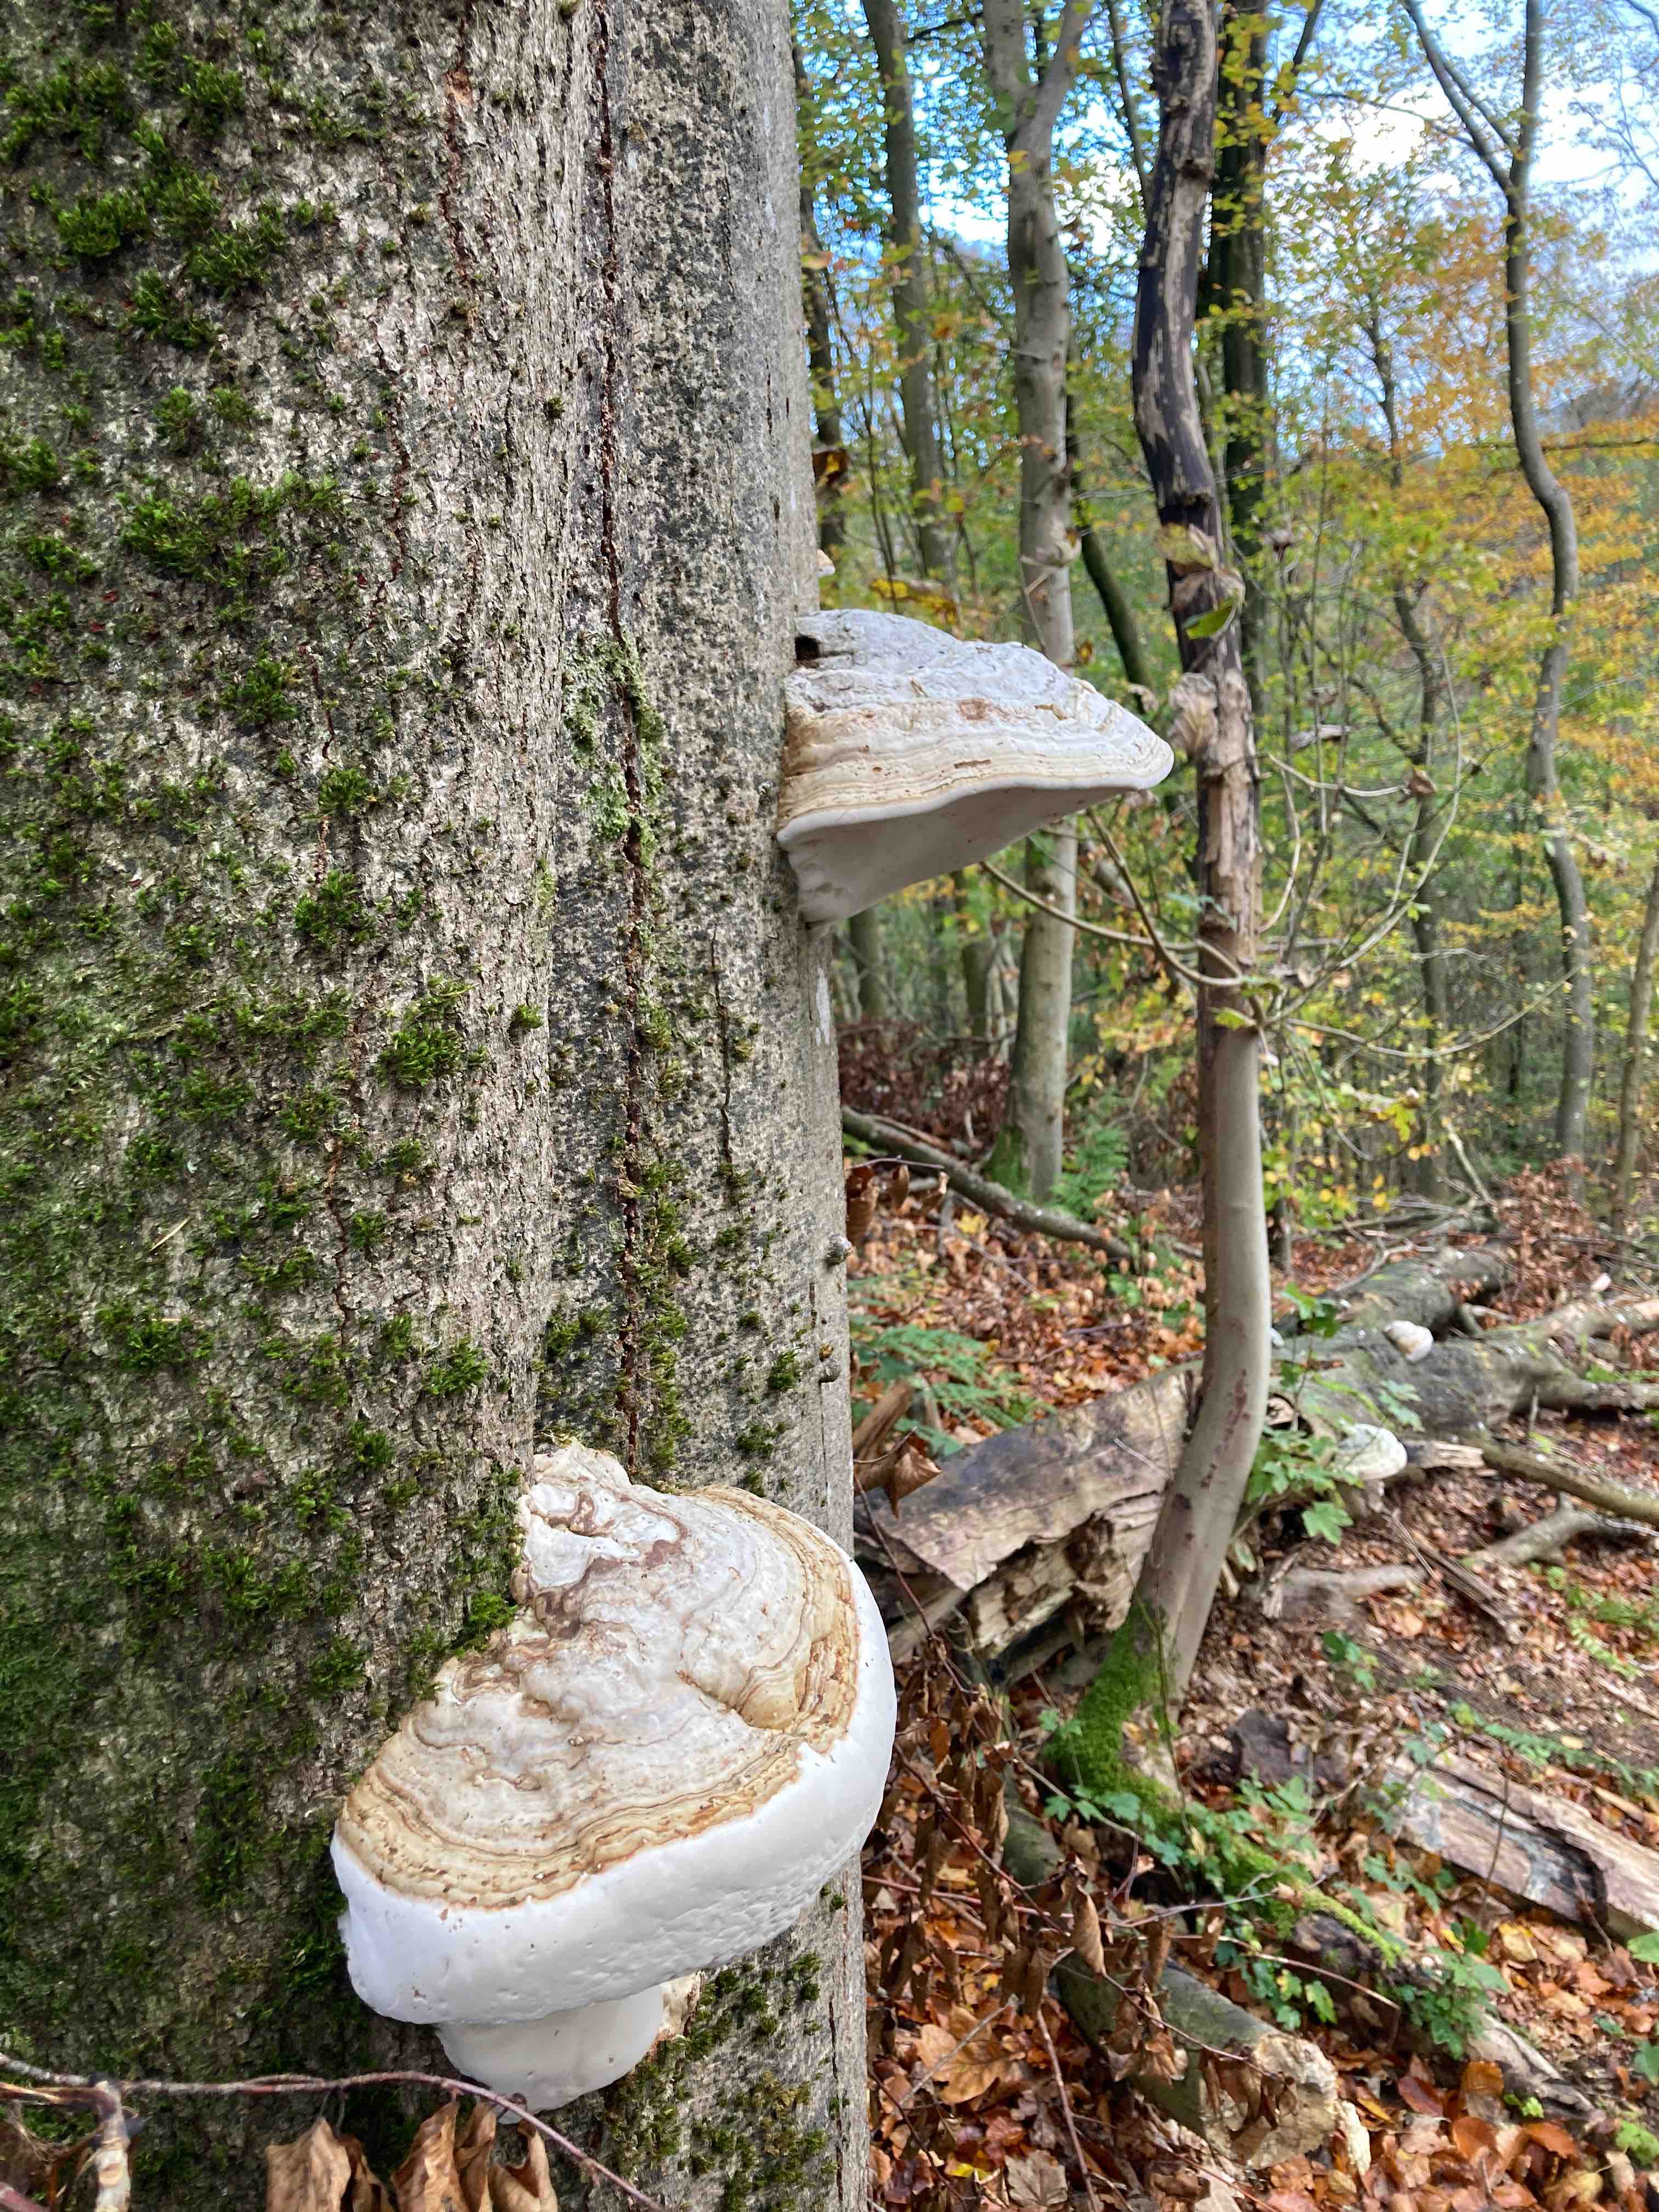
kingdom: Fungi
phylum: Basidiomycota
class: Agaricomycetes
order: Polyporales
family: Polyporaceae
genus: Fomes
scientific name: Fomes fomentarius
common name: tøndersvamp
